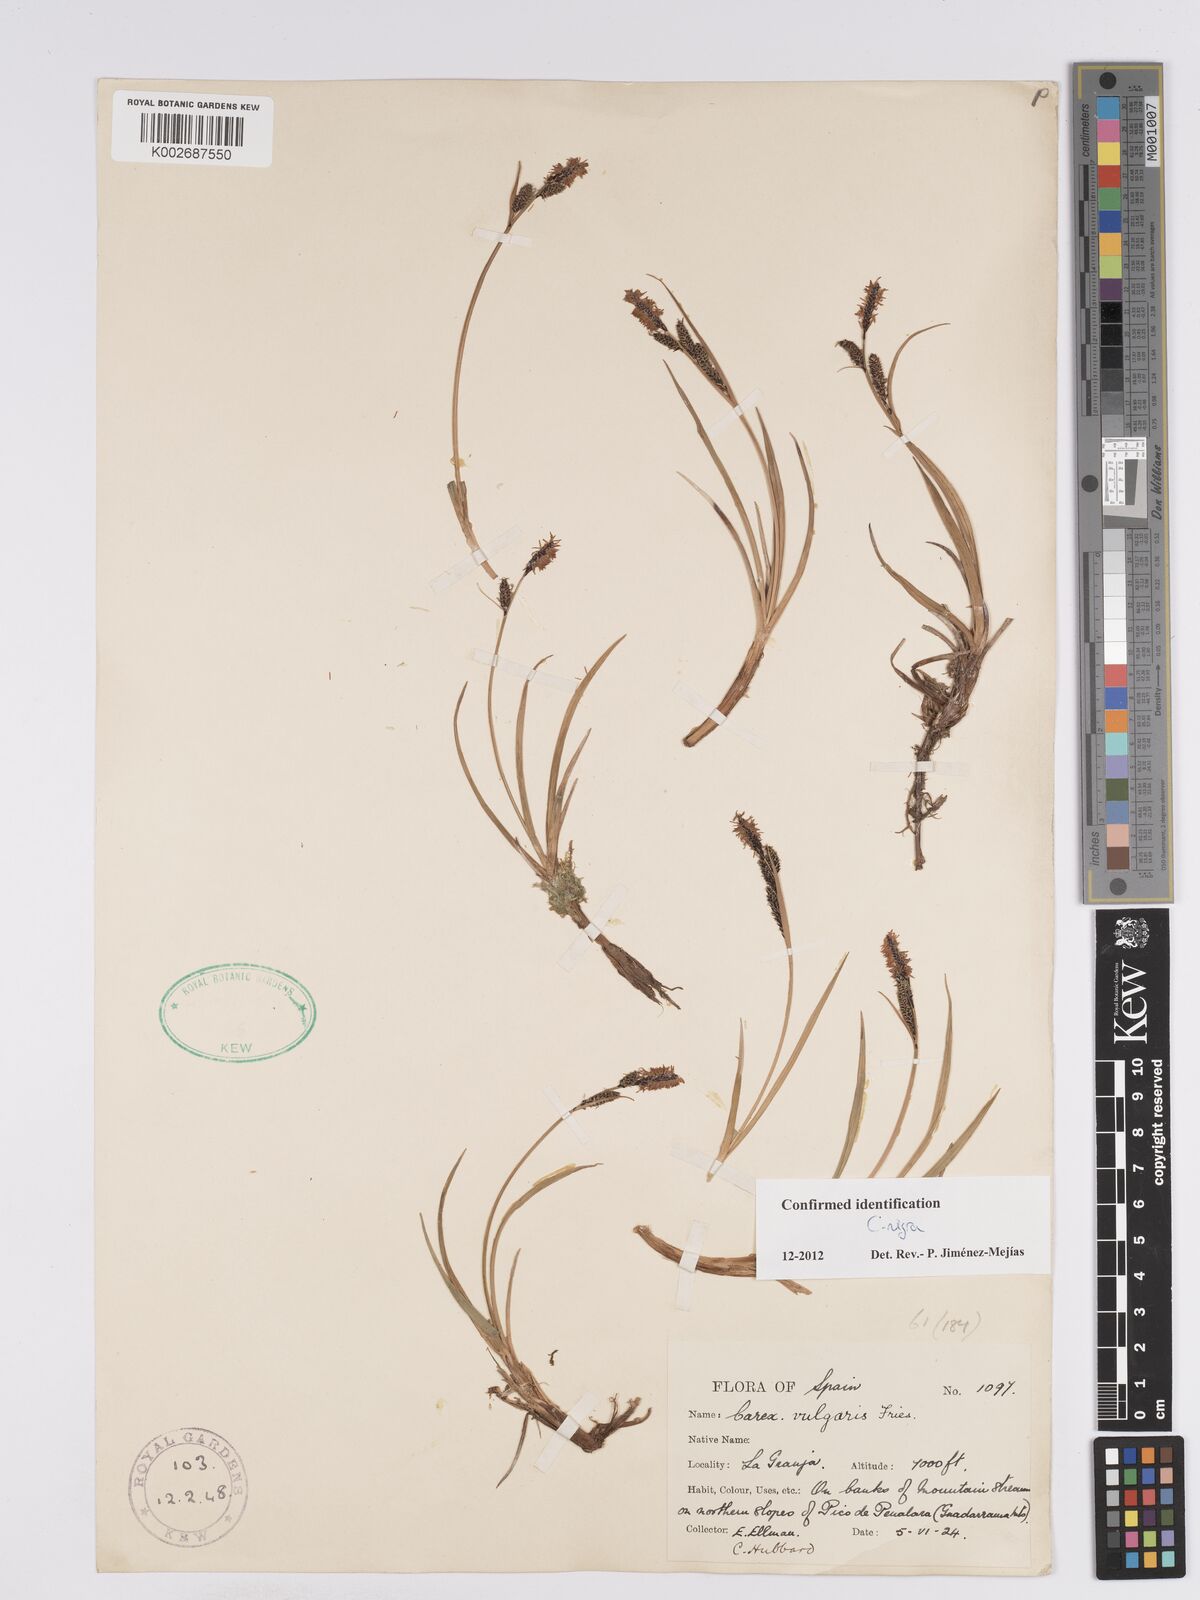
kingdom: Plantae
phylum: Tracheophyta
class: Liliopsida
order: Poales
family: Cyperaceae
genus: Carex
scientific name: Carex nigra
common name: Common sedge
